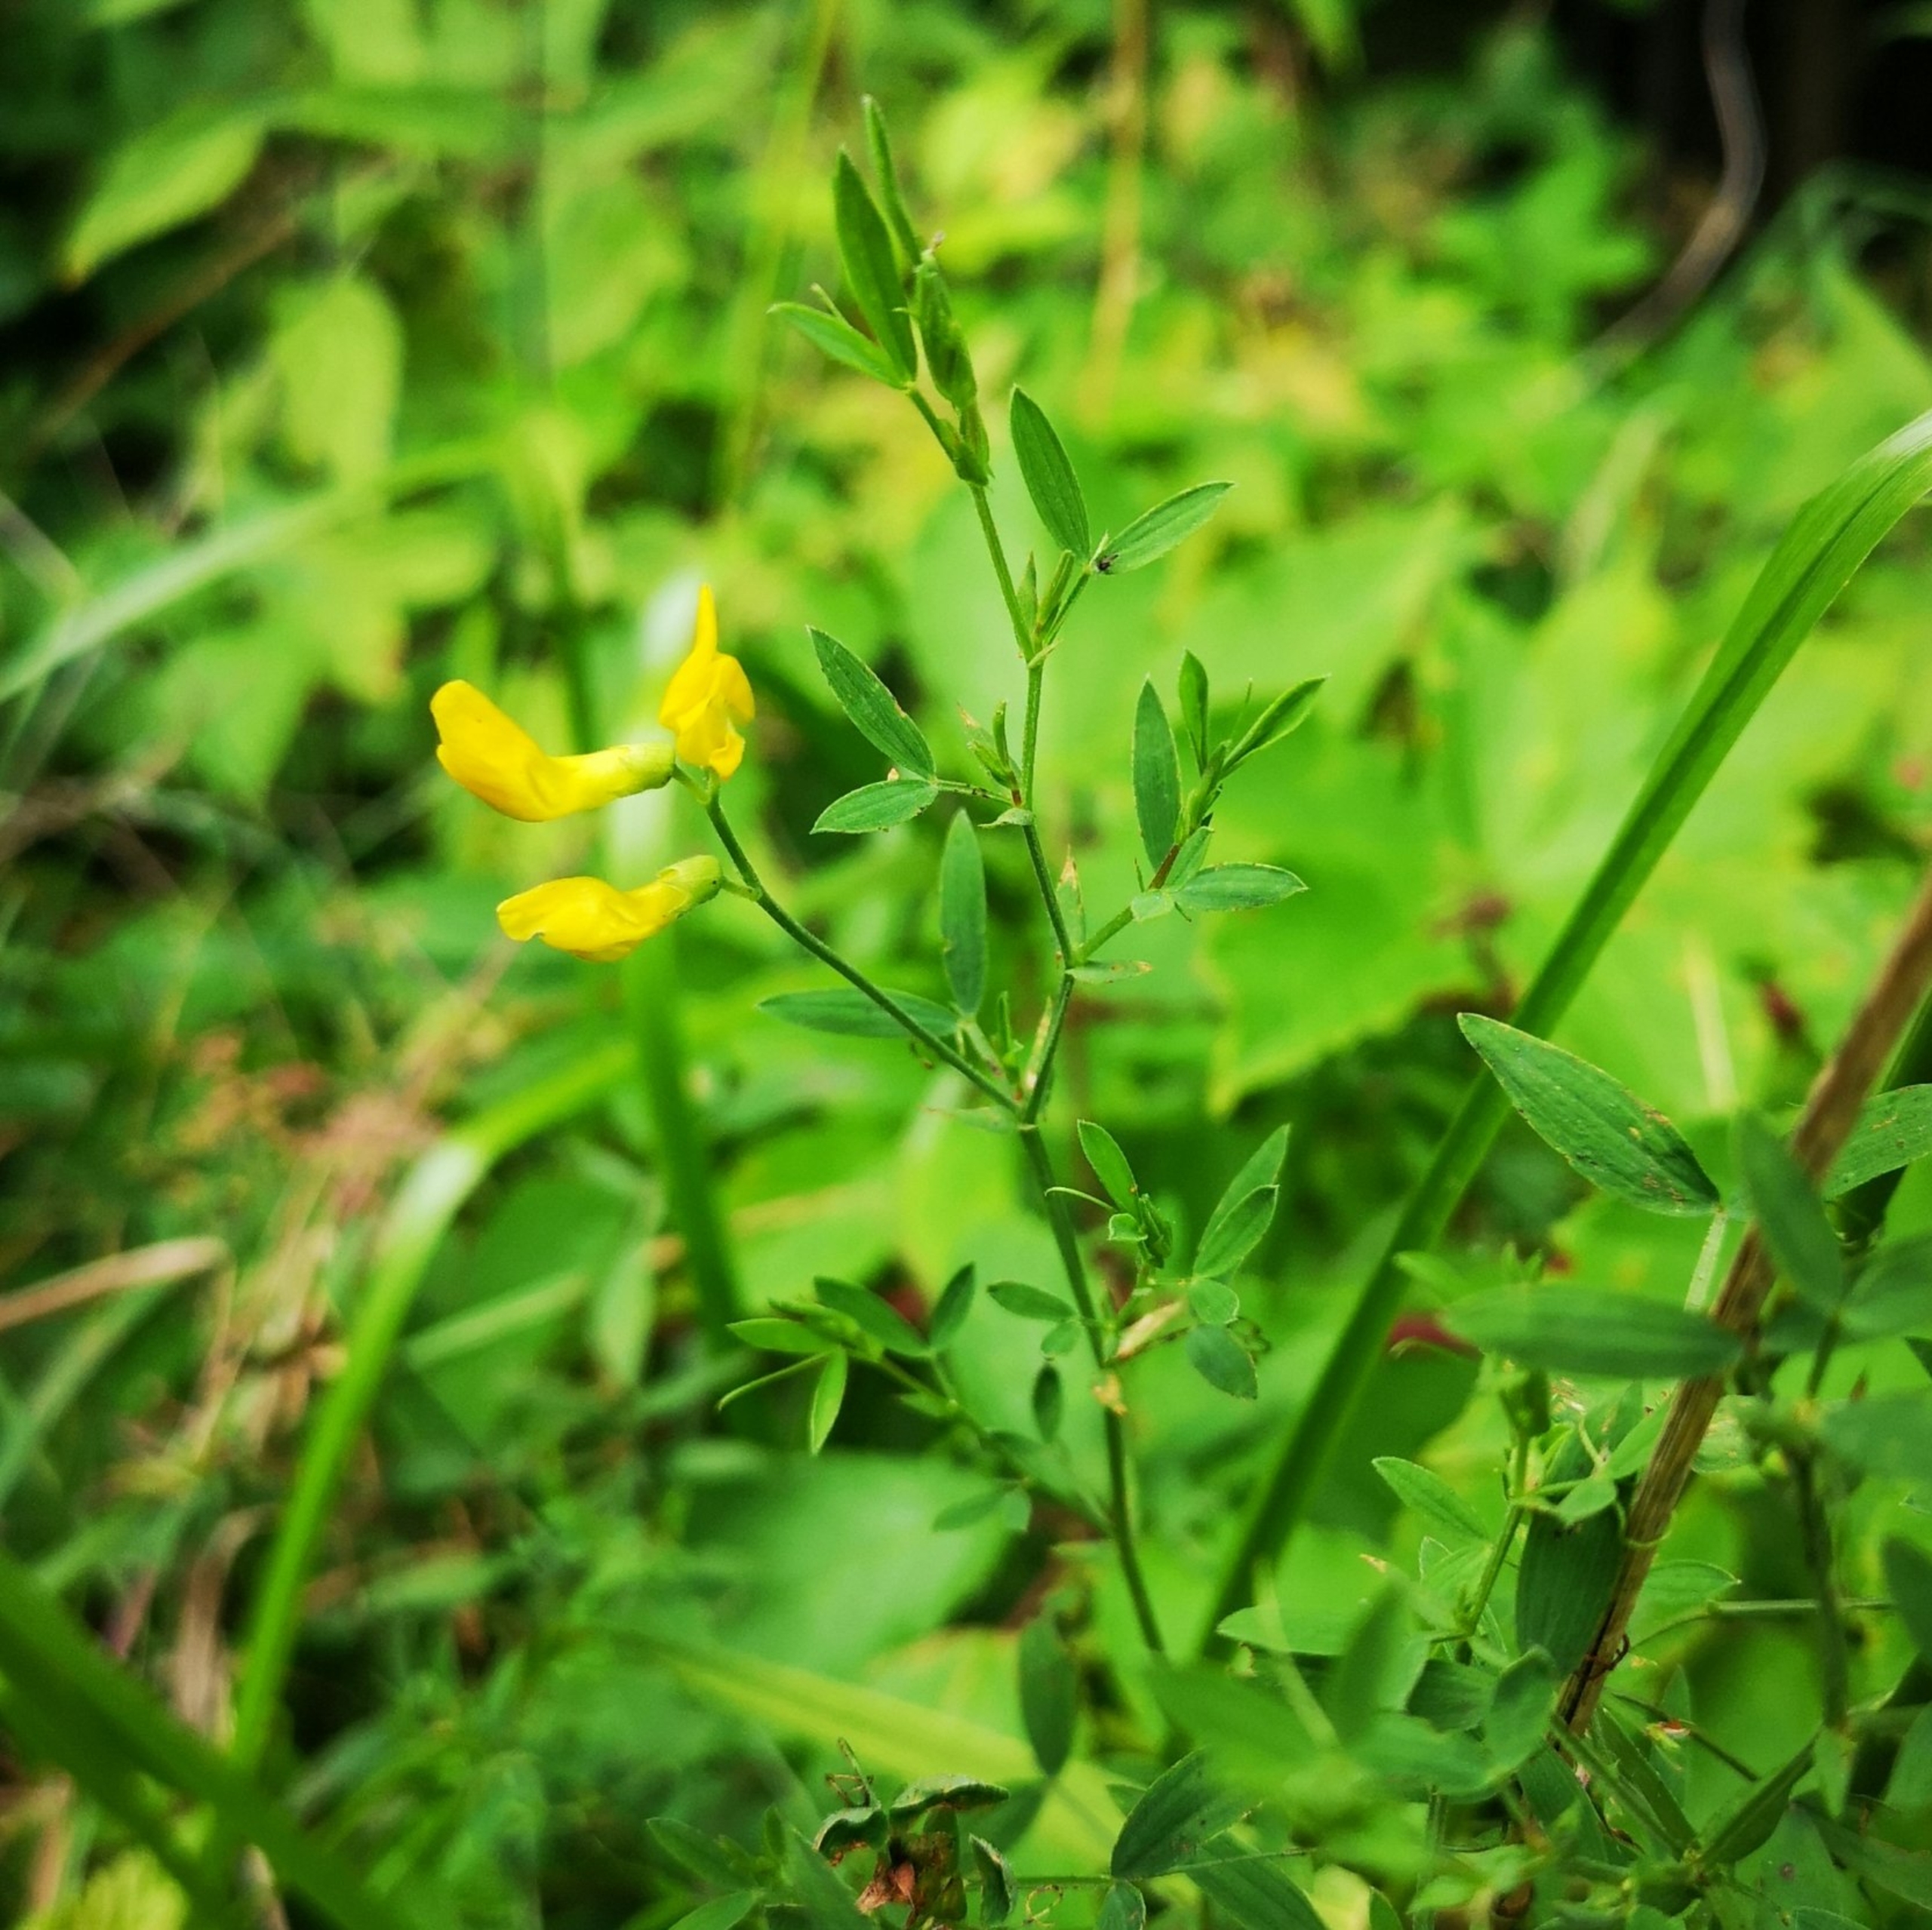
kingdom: Plantae
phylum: Tracheophyta
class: Magnoliopsida
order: Fabales
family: Fabaceae
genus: Lathyrus
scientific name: Lathyrus pratensis
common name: Gul fladbælg
